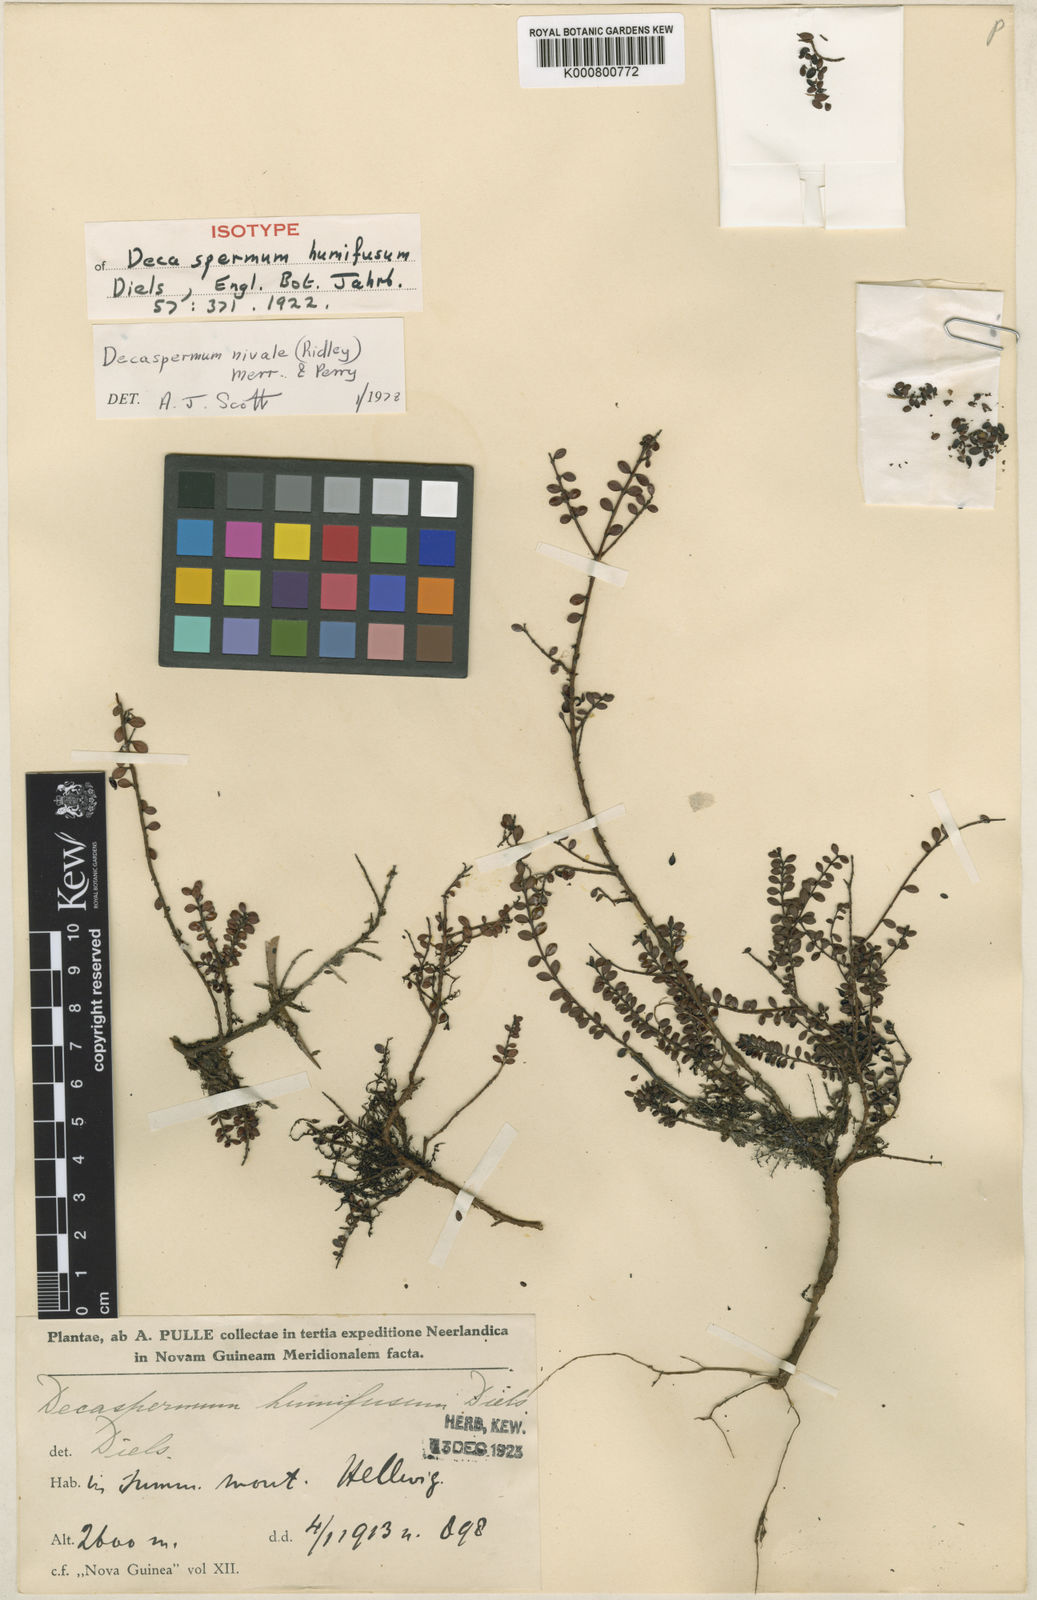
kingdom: Plantae
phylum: Tracheophyta
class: Magnoliopsida
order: Myrtales
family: Myrtaceae
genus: Decaspermum
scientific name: Decaspermum nivale
